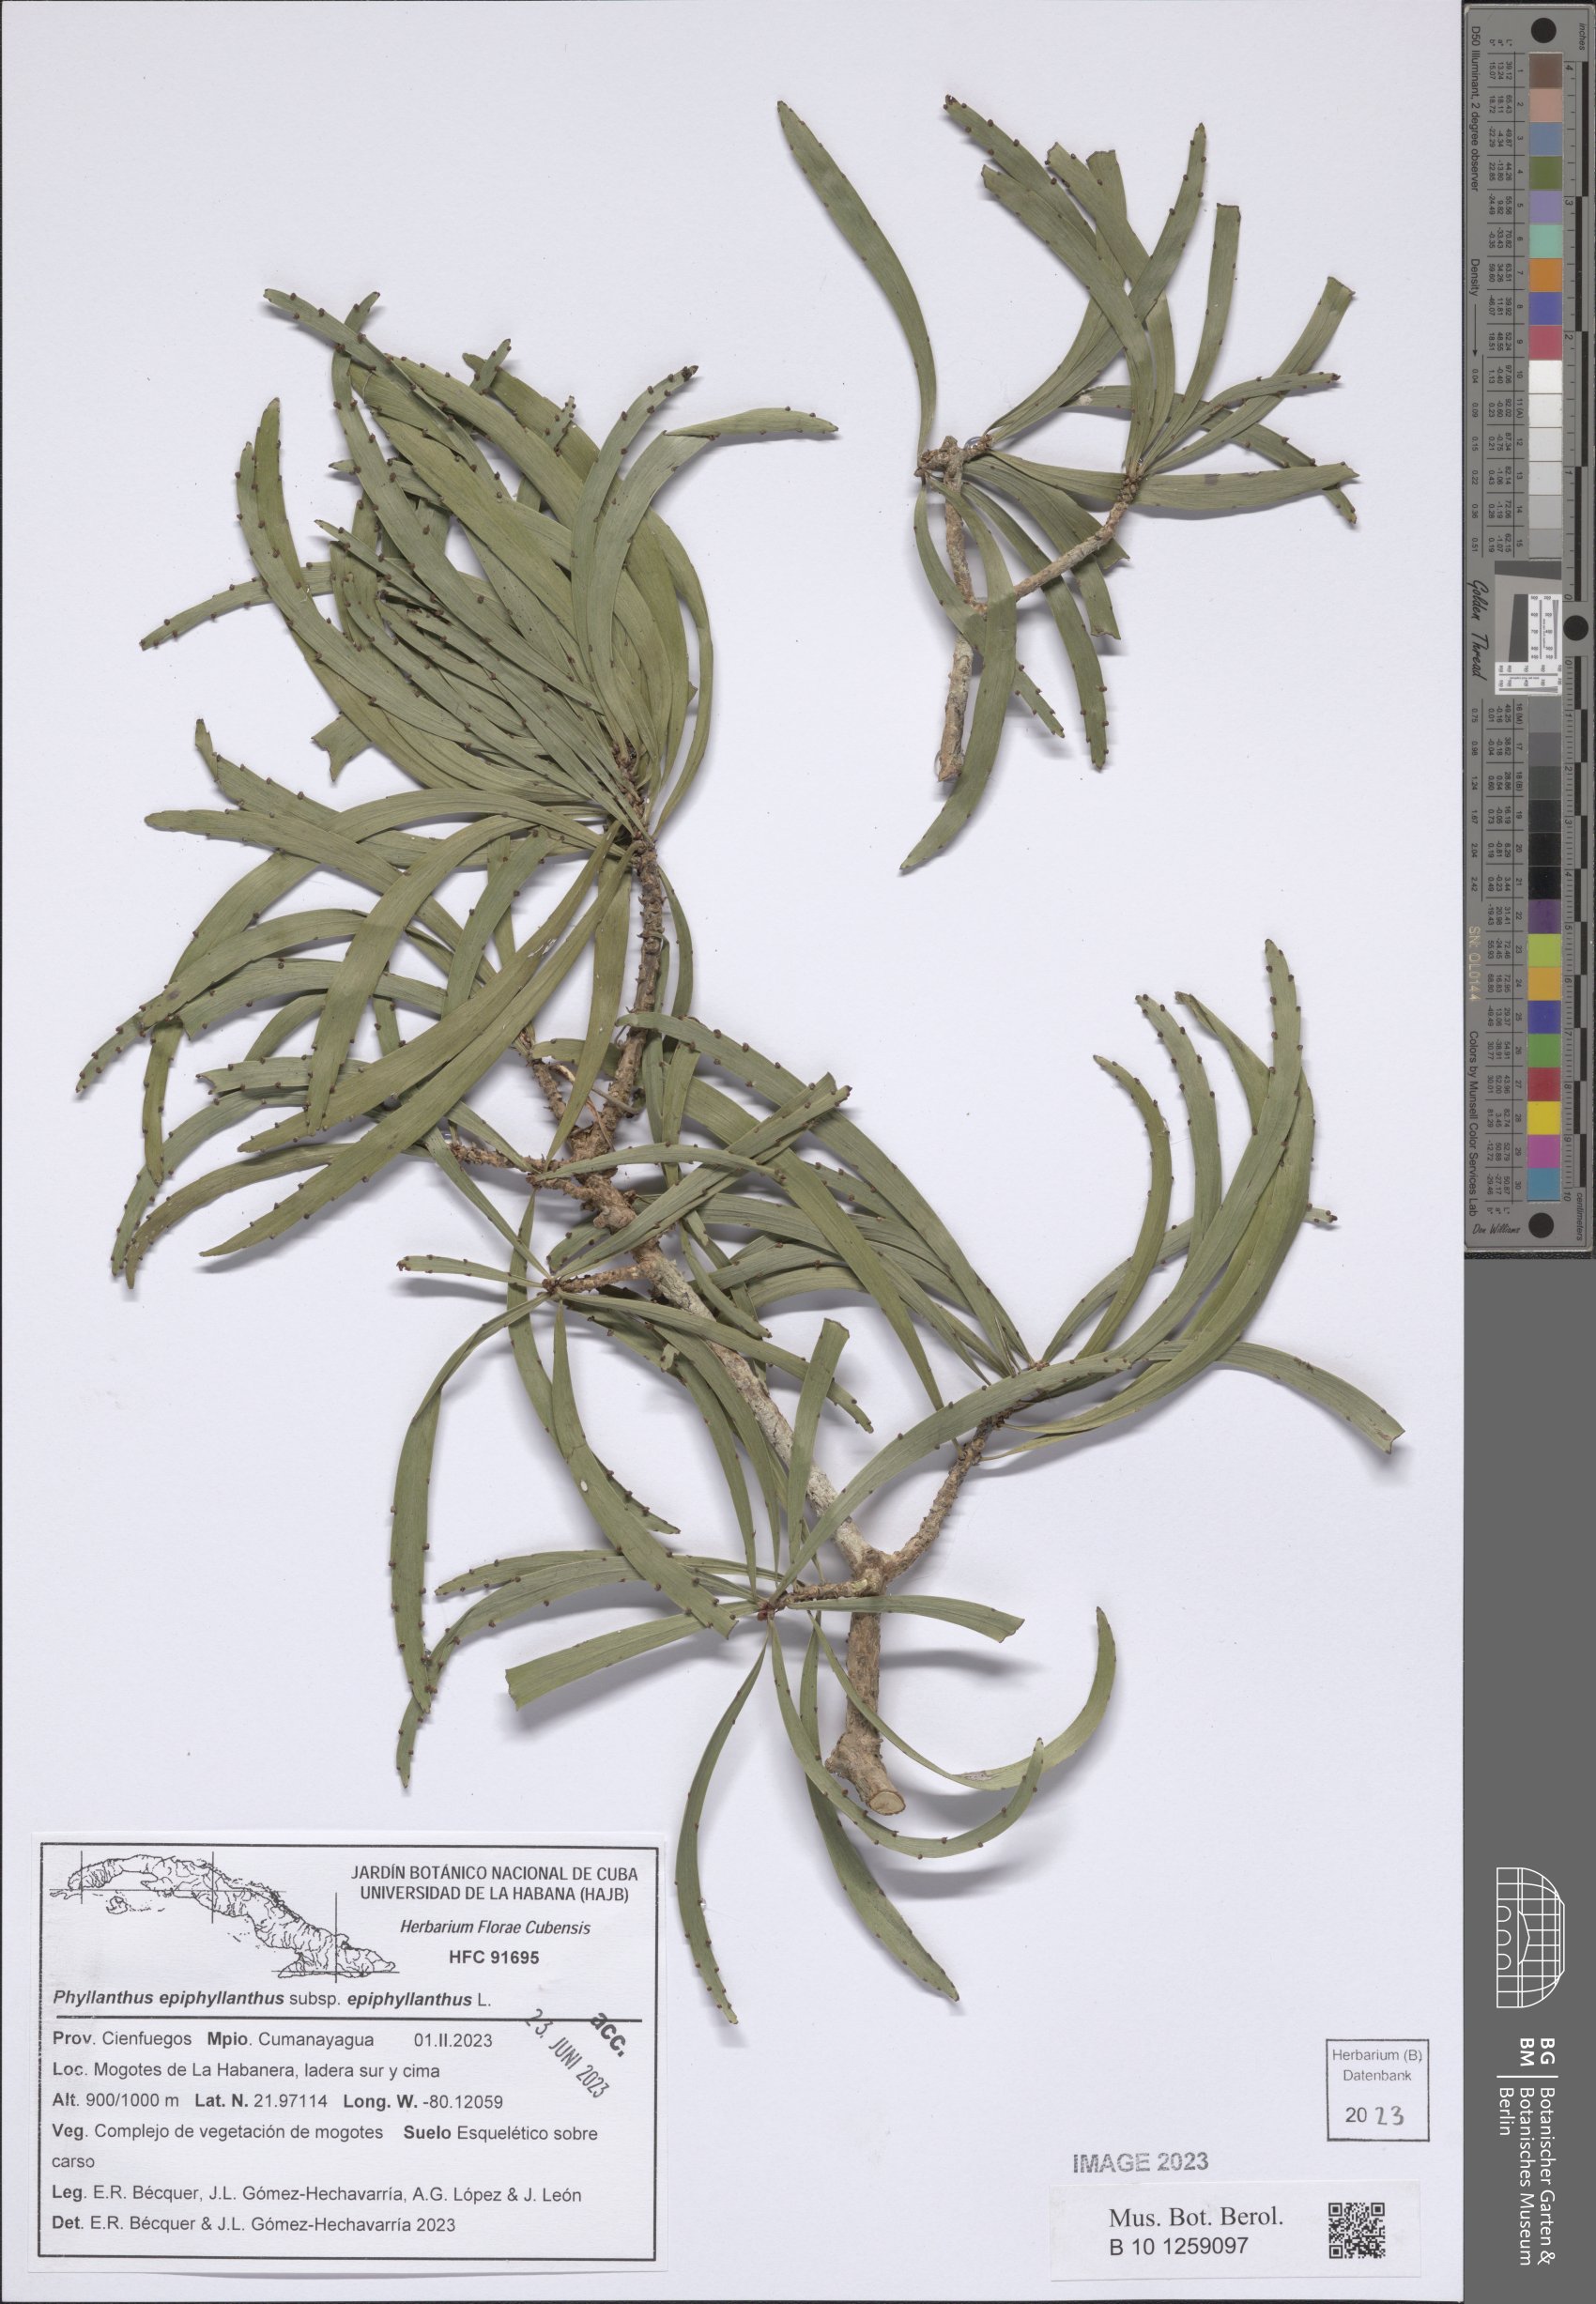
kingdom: Plantae
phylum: Tracheophyta
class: Magnoliopsida
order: Malpighiales
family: Phyllanthaceae
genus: Phyllanthus
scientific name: Phyllanthus epiphyllanthus
